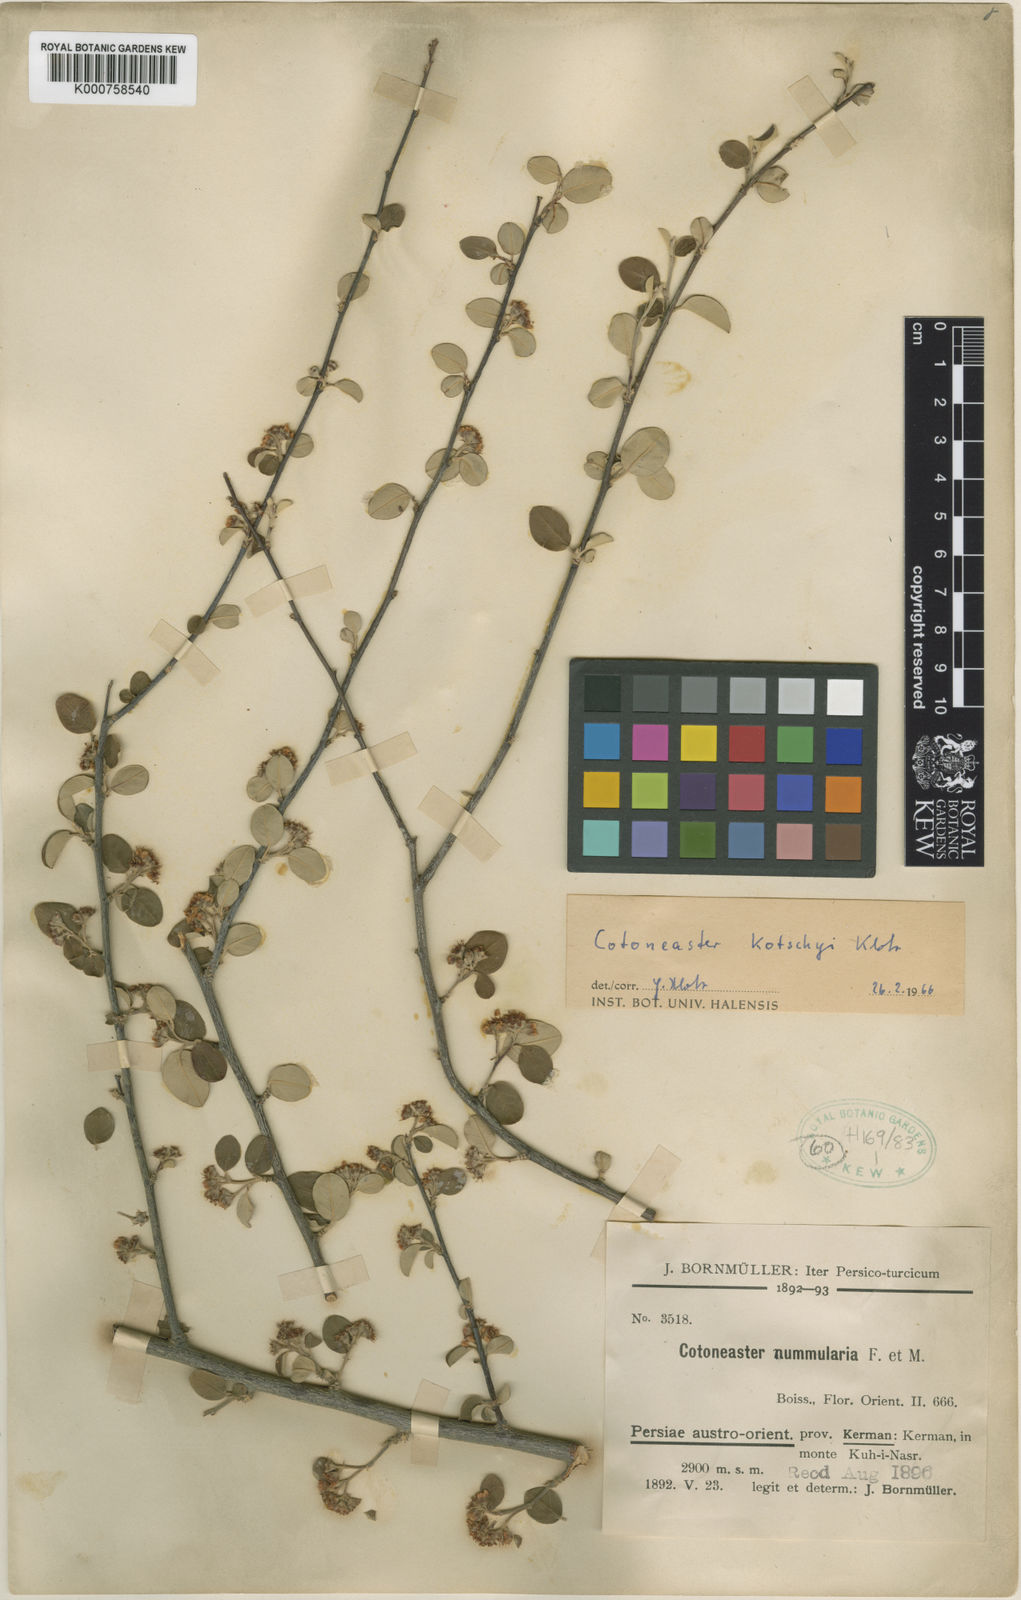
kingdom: Plantae
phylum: Tracheophyta
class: Magnoliopsida
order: Rosales
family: Rosaceae
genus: Cotoneaster
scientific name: Cotoneaster kotschyi
